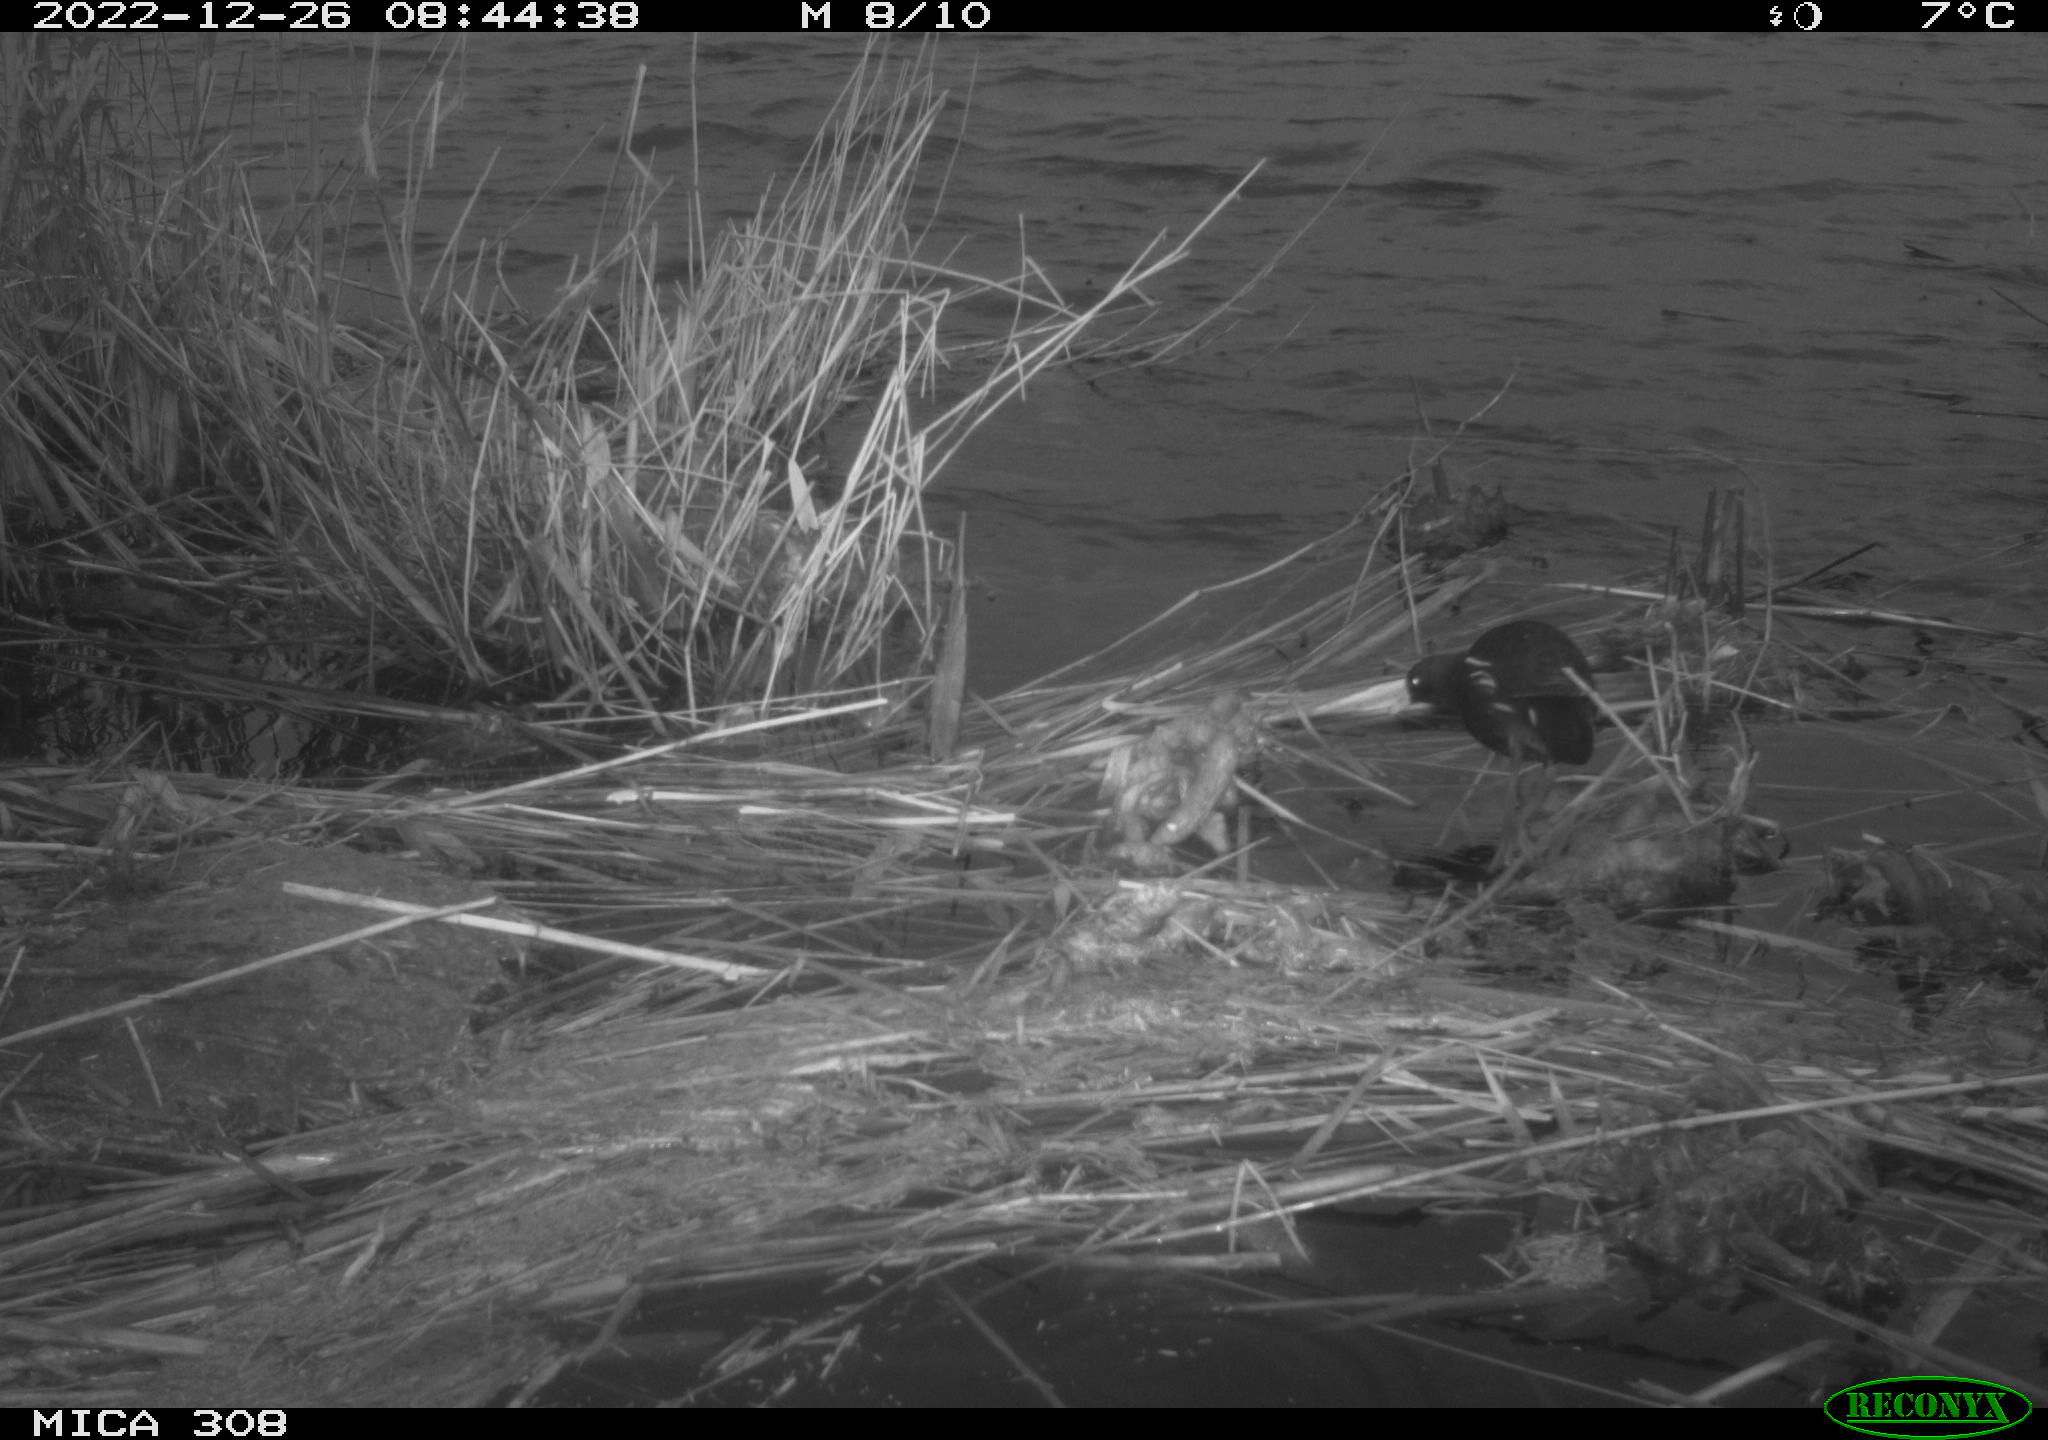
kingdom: Animalia
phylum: Chordata
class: Aves
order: Gruiformes
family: Rallidae
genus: Gallinula
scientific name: Gallinula chloropus
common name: Common moorhen
